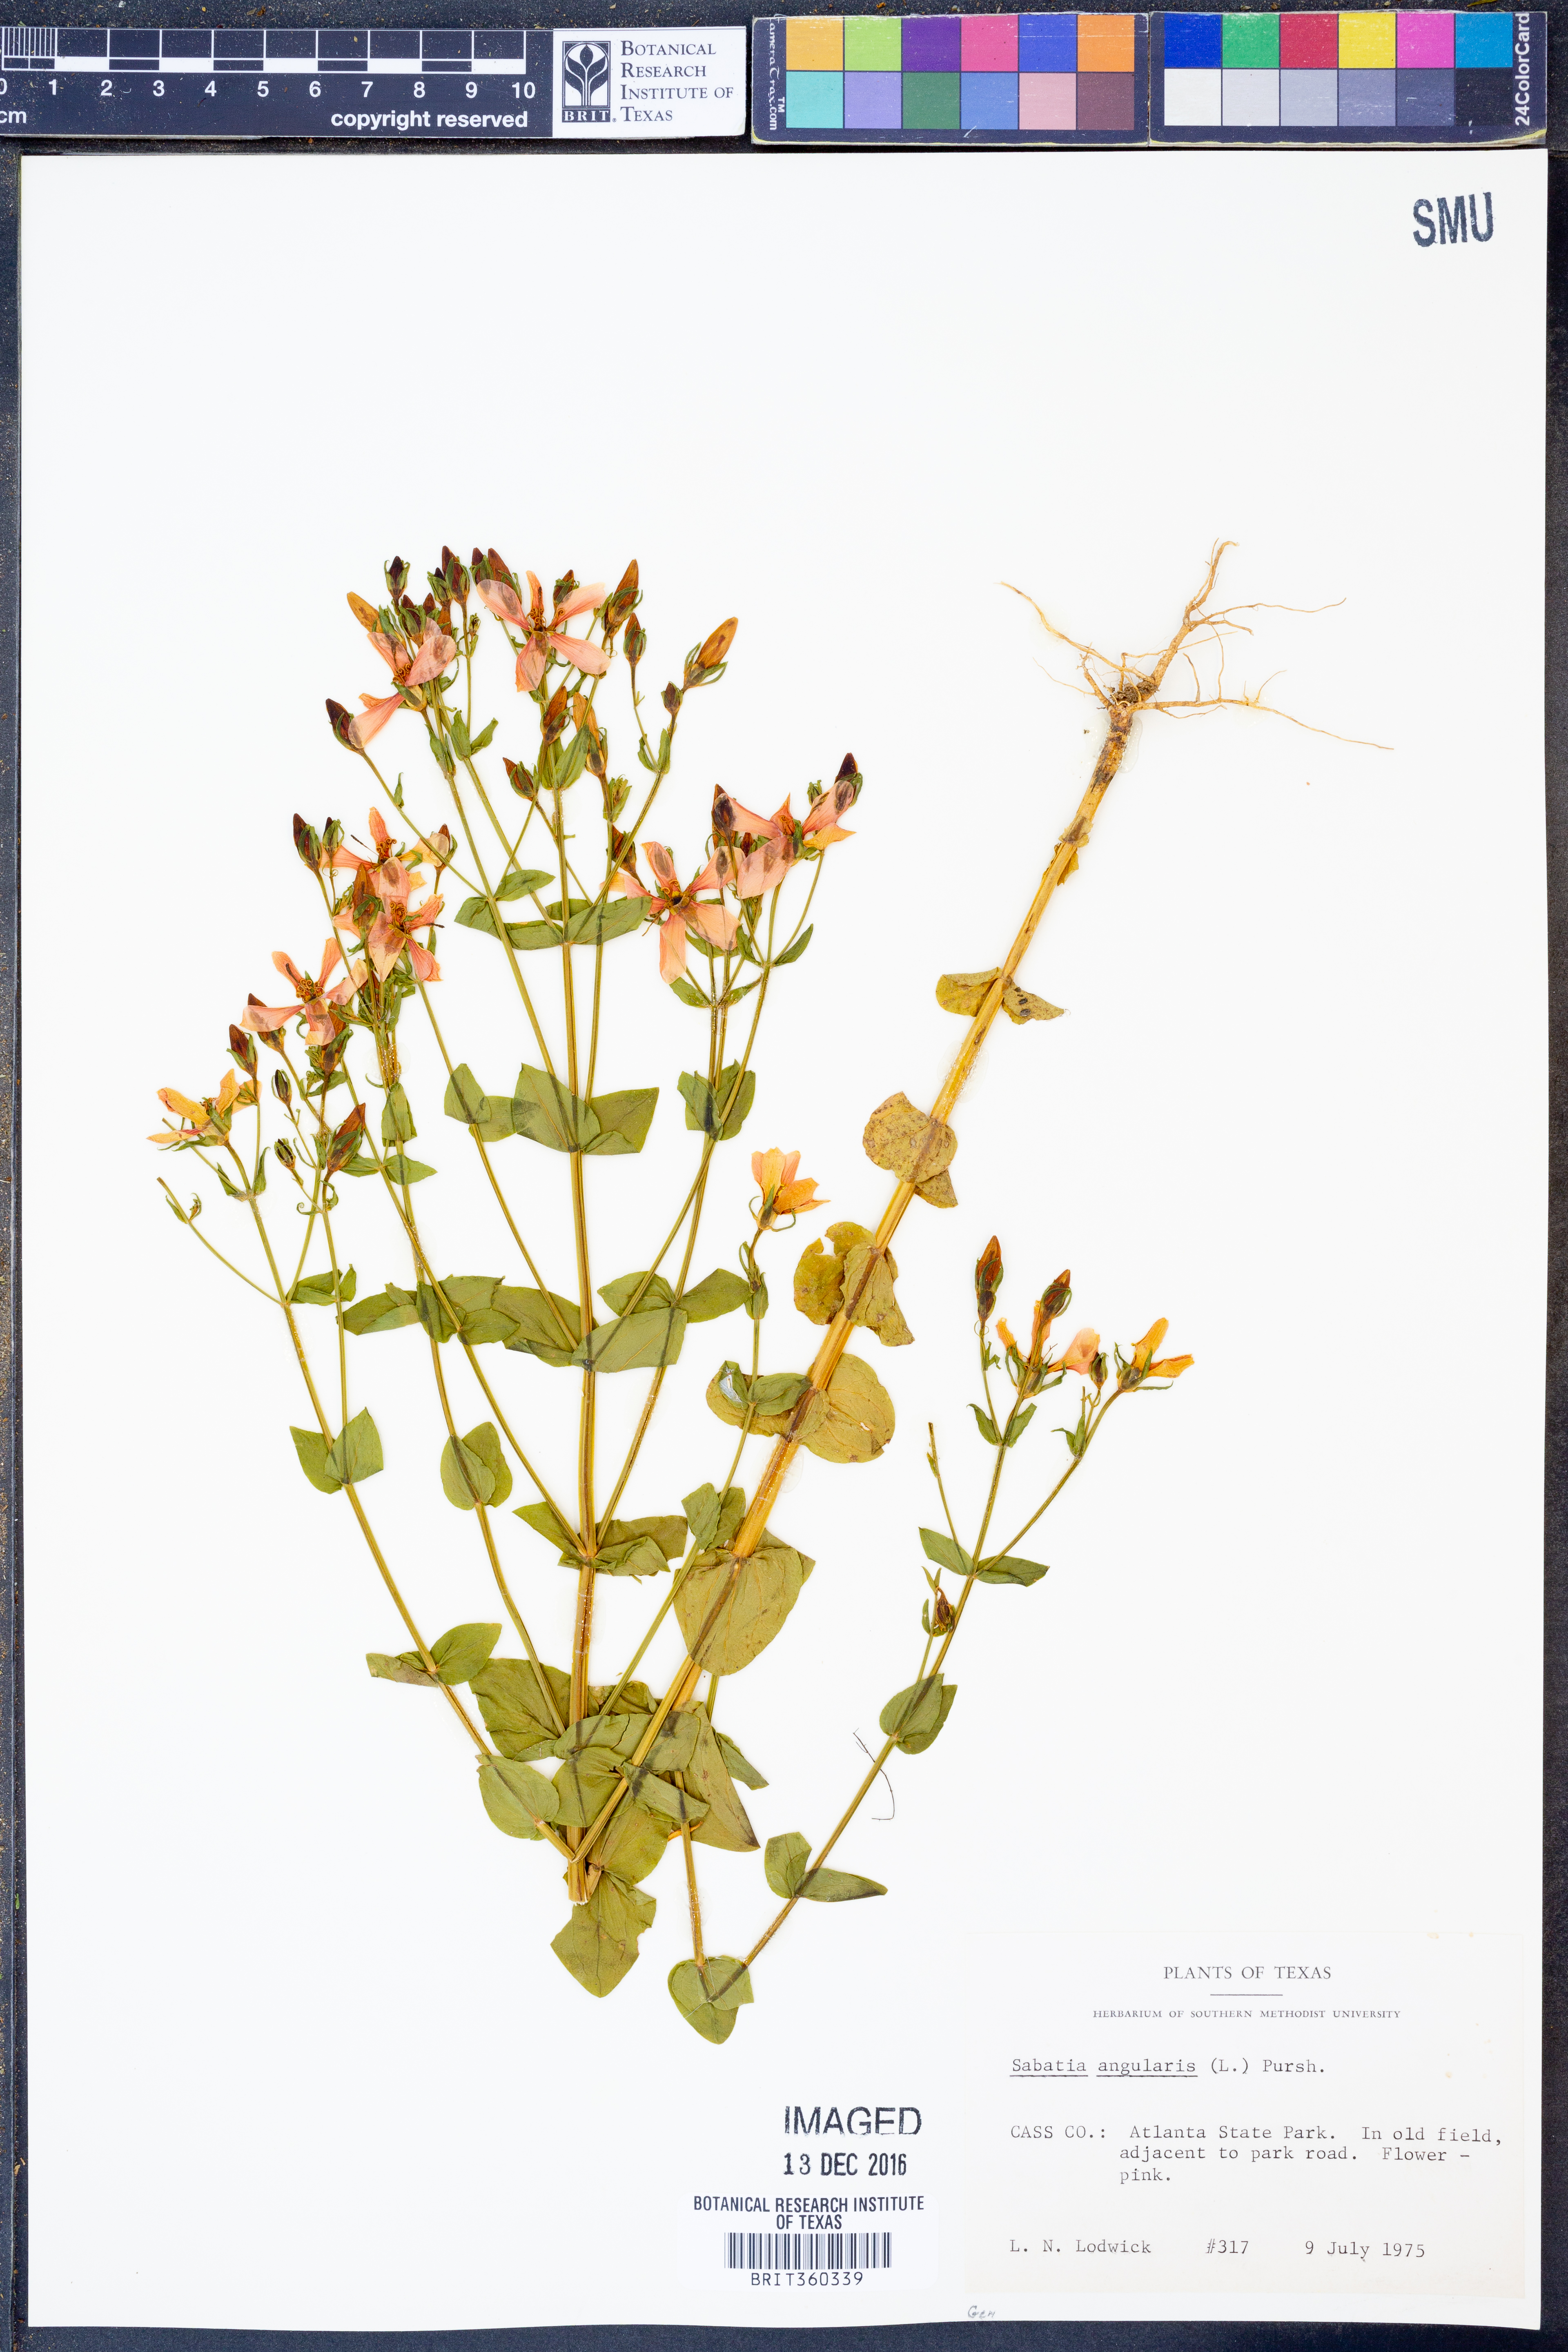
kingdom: Plantae
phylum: Tracheophyta
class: Magnoliopsida
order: Gentianales
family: Gentianaceae
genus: Sabatia
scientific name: Sabatia angularis
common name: Rose-pink
